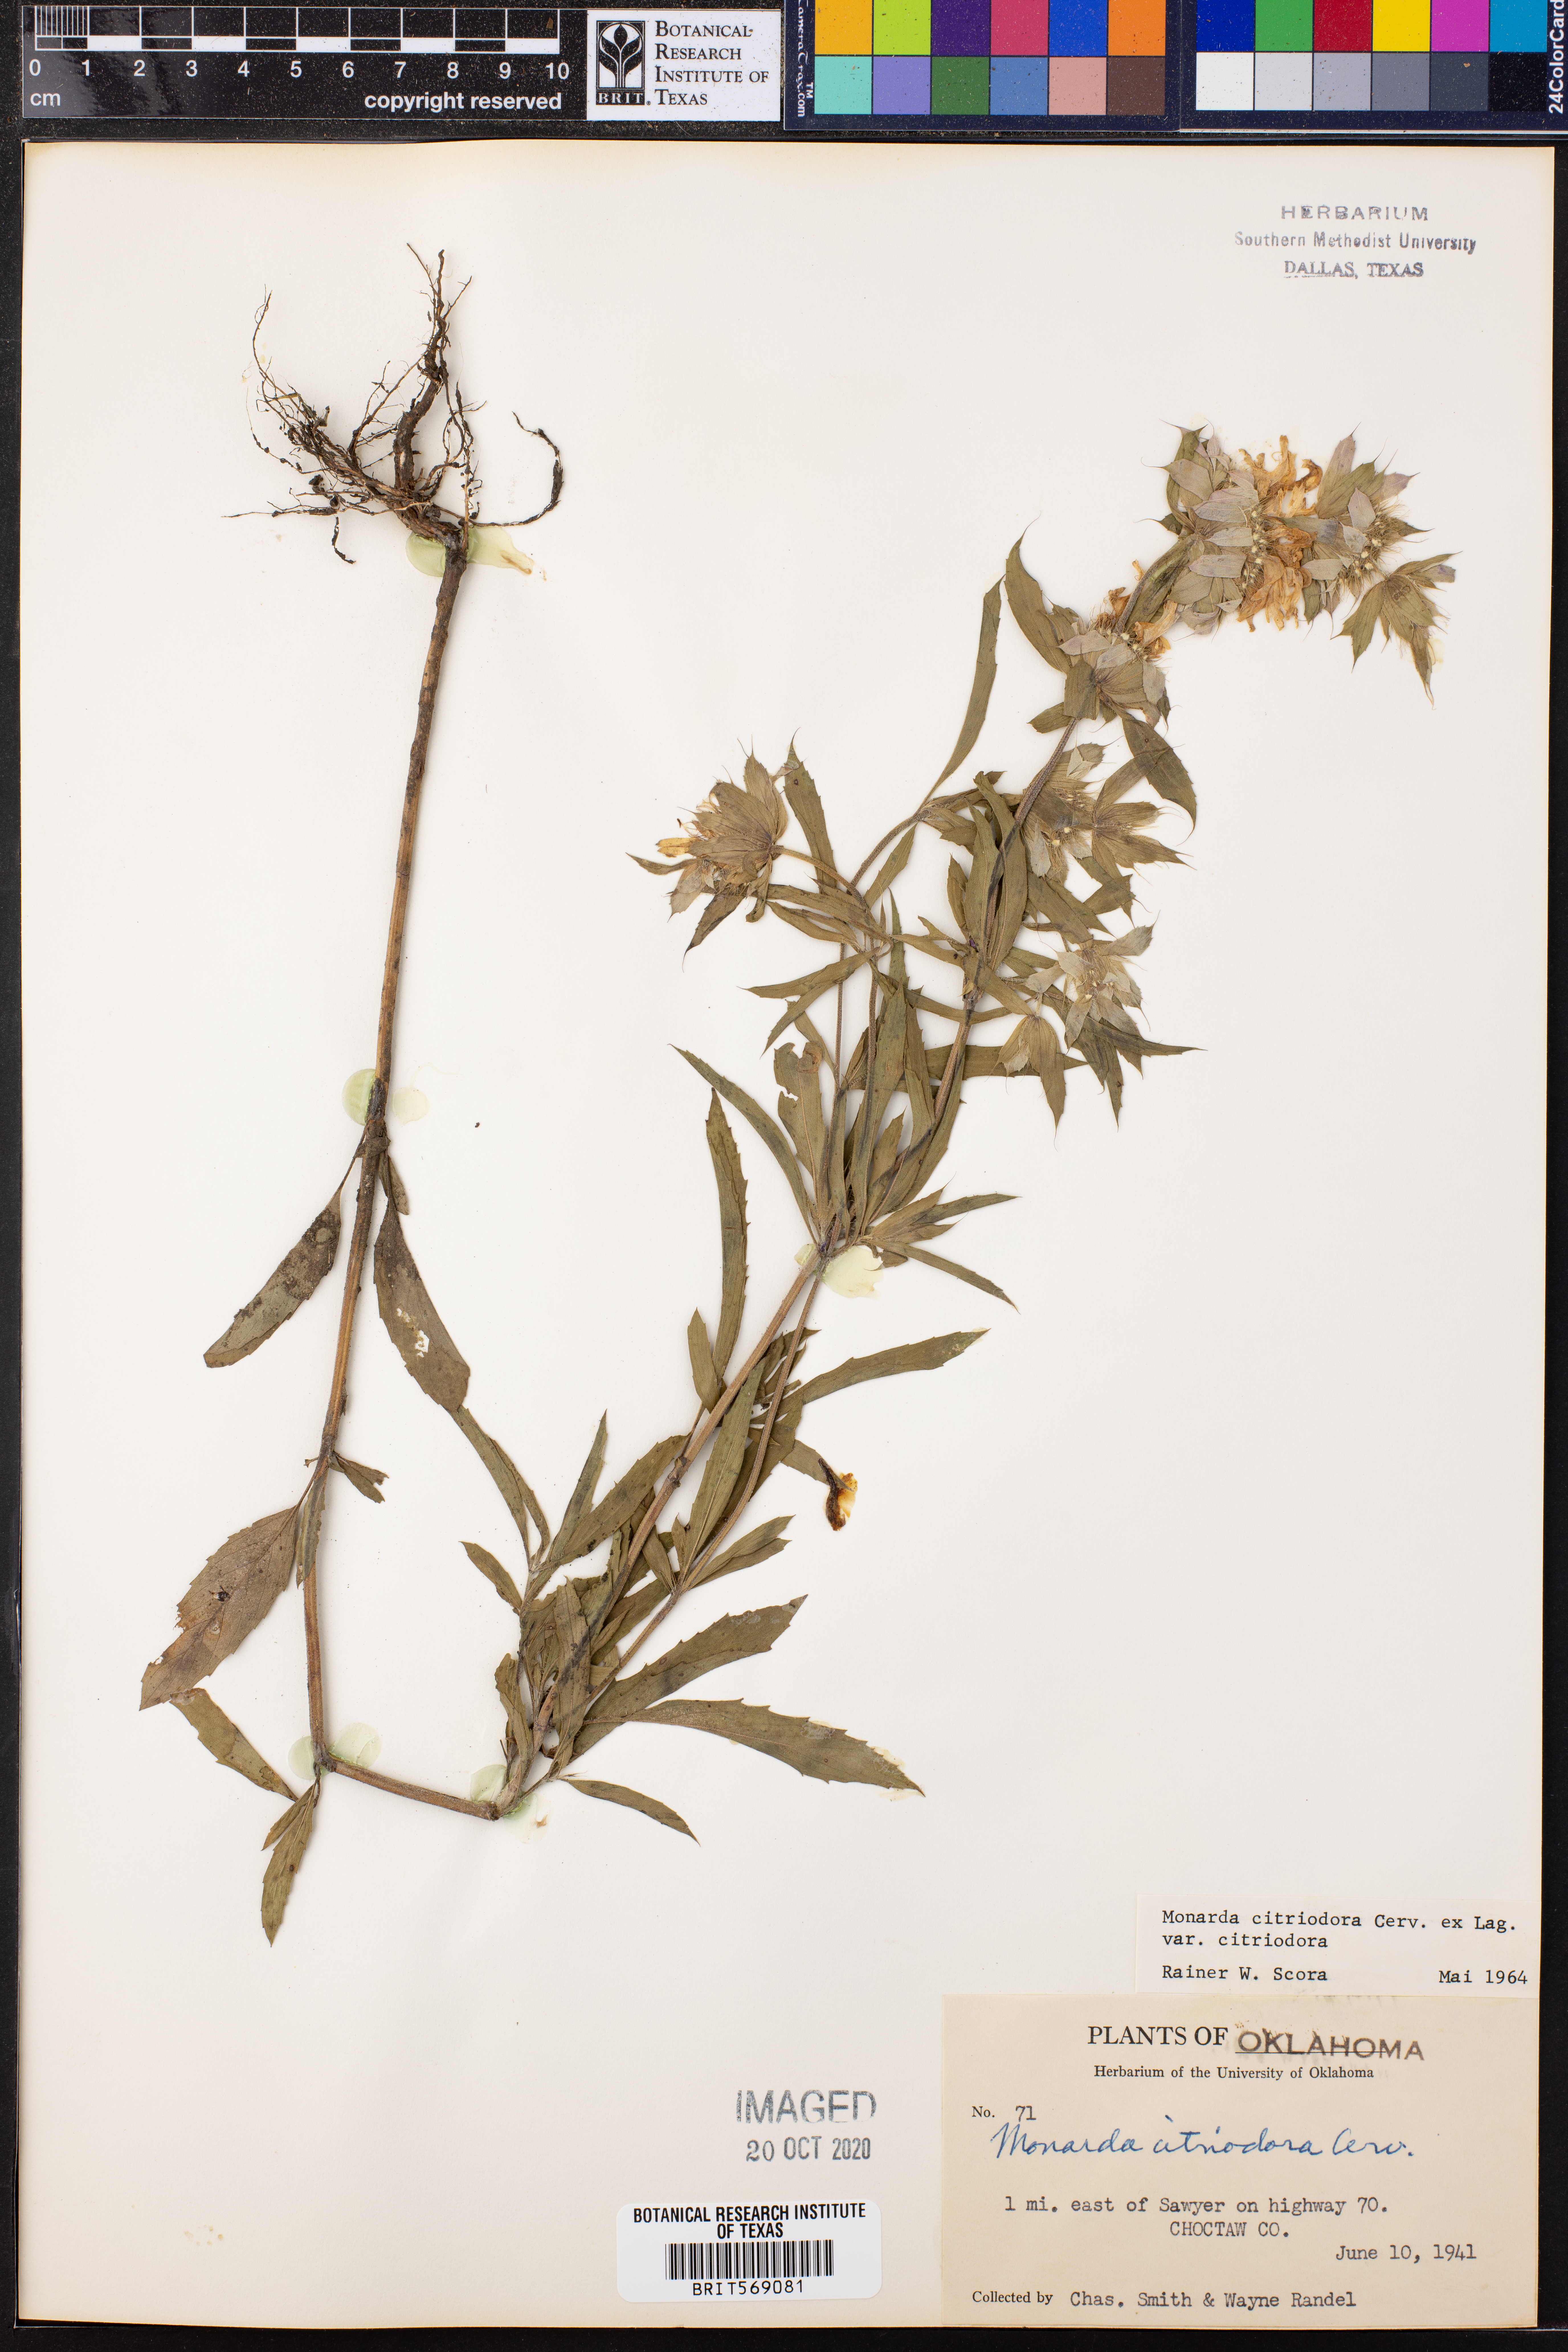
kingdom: Plantae
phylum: Tracheophyta
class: Magnoliopsida
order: Lamiales
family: Lamiaceae
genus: Monarda
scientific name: Monarda citriodora
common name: Lemon beebalm
